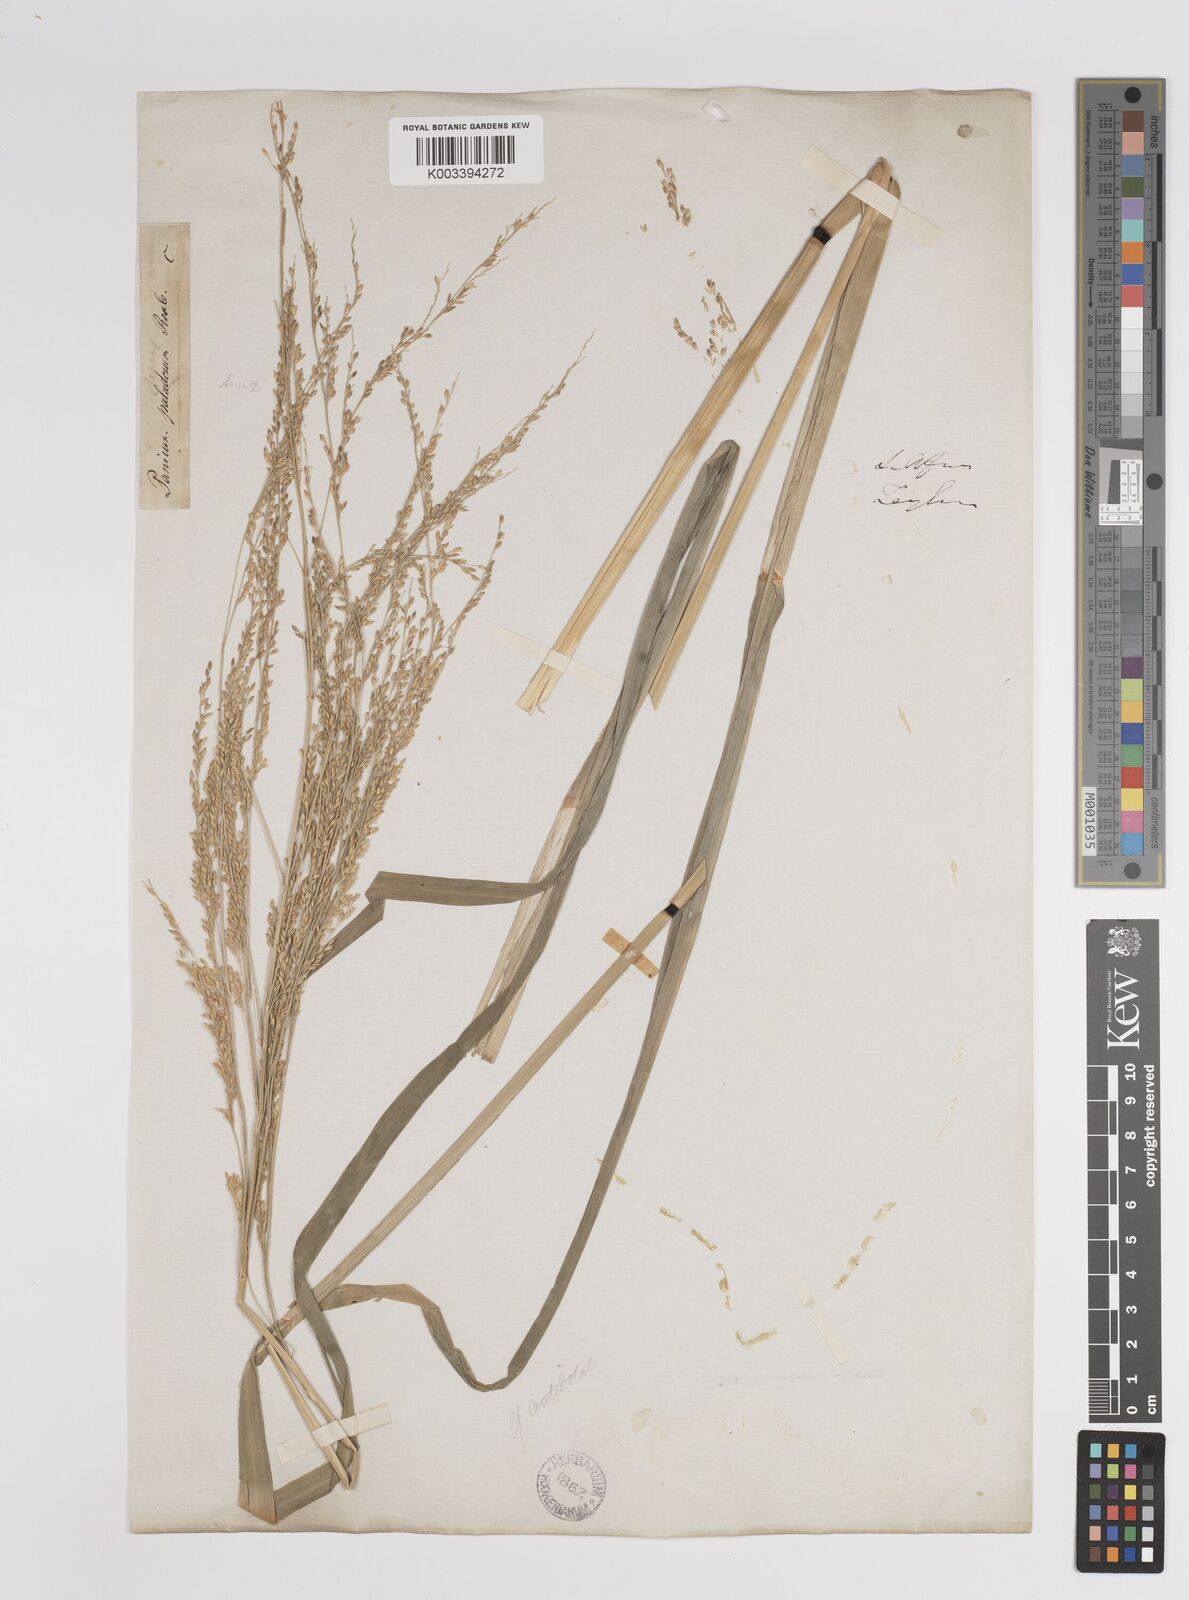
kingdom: Plantae
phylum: Tracheophyta
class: Liliopsida
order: Poales
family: Poaceae
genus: Panicum
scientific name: Panicum subalbidum
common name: Elbow buffalo grass
